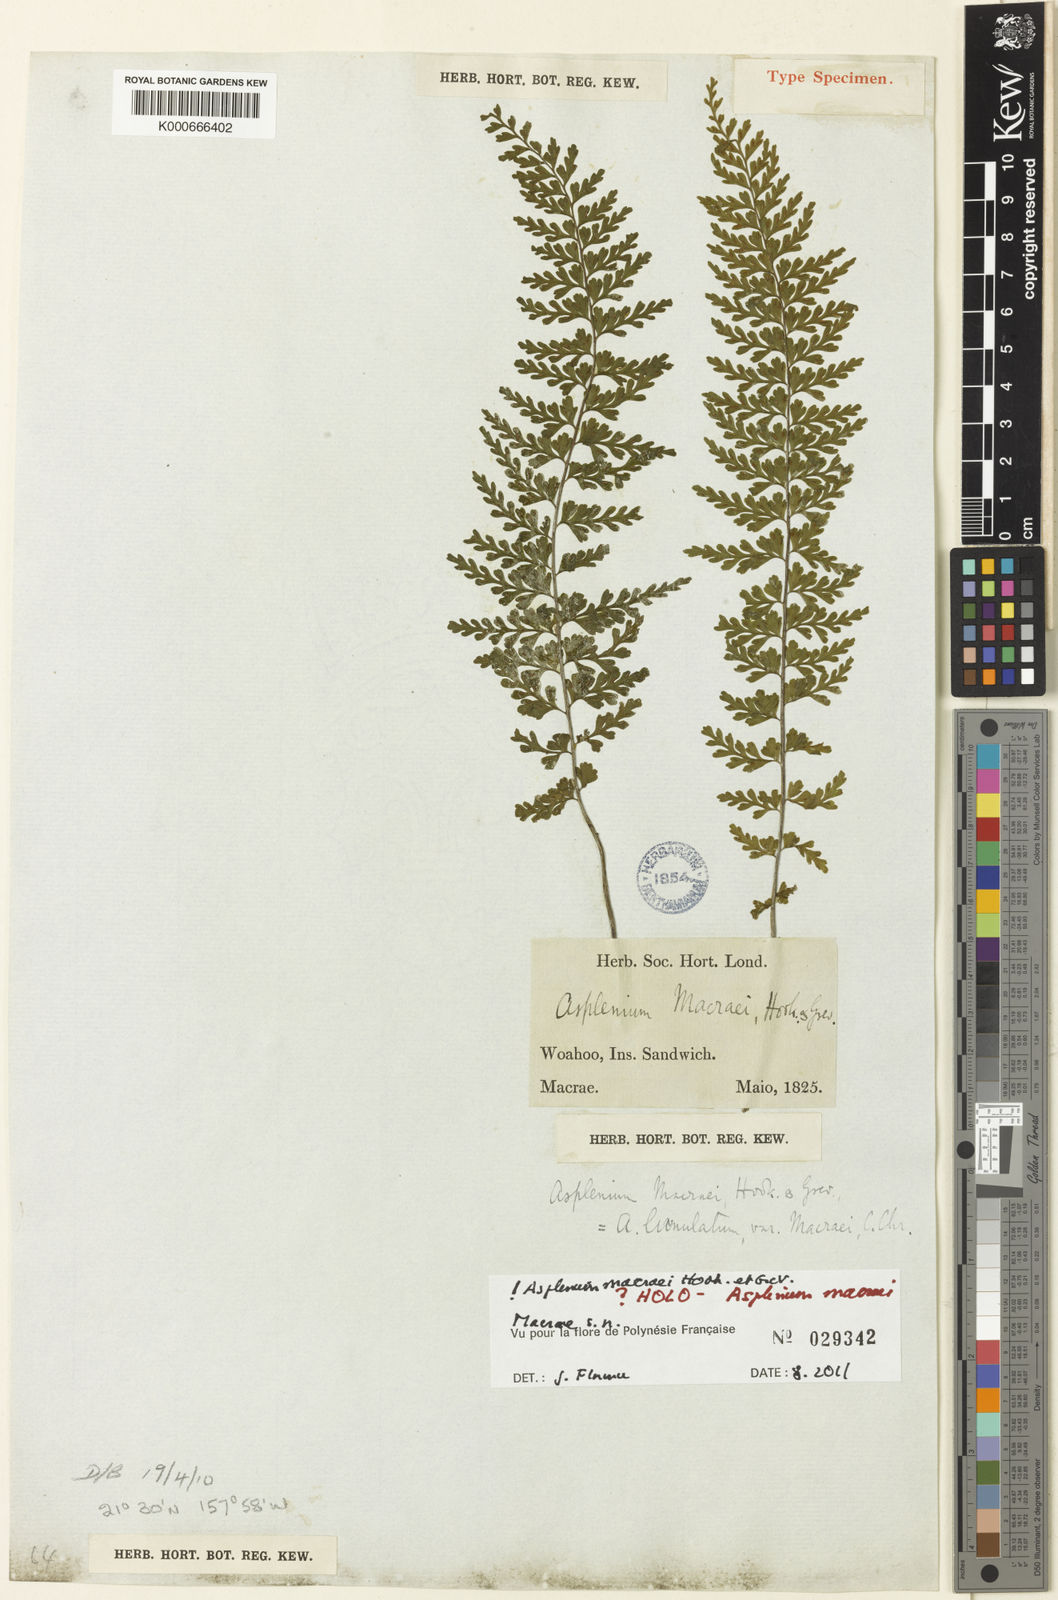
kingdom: Plantae
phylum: Tracheophyta
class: Polypodiopsida
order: Polypodiales
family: Aspleniaceae
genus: Asplenium
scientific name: Asplenium macraei
